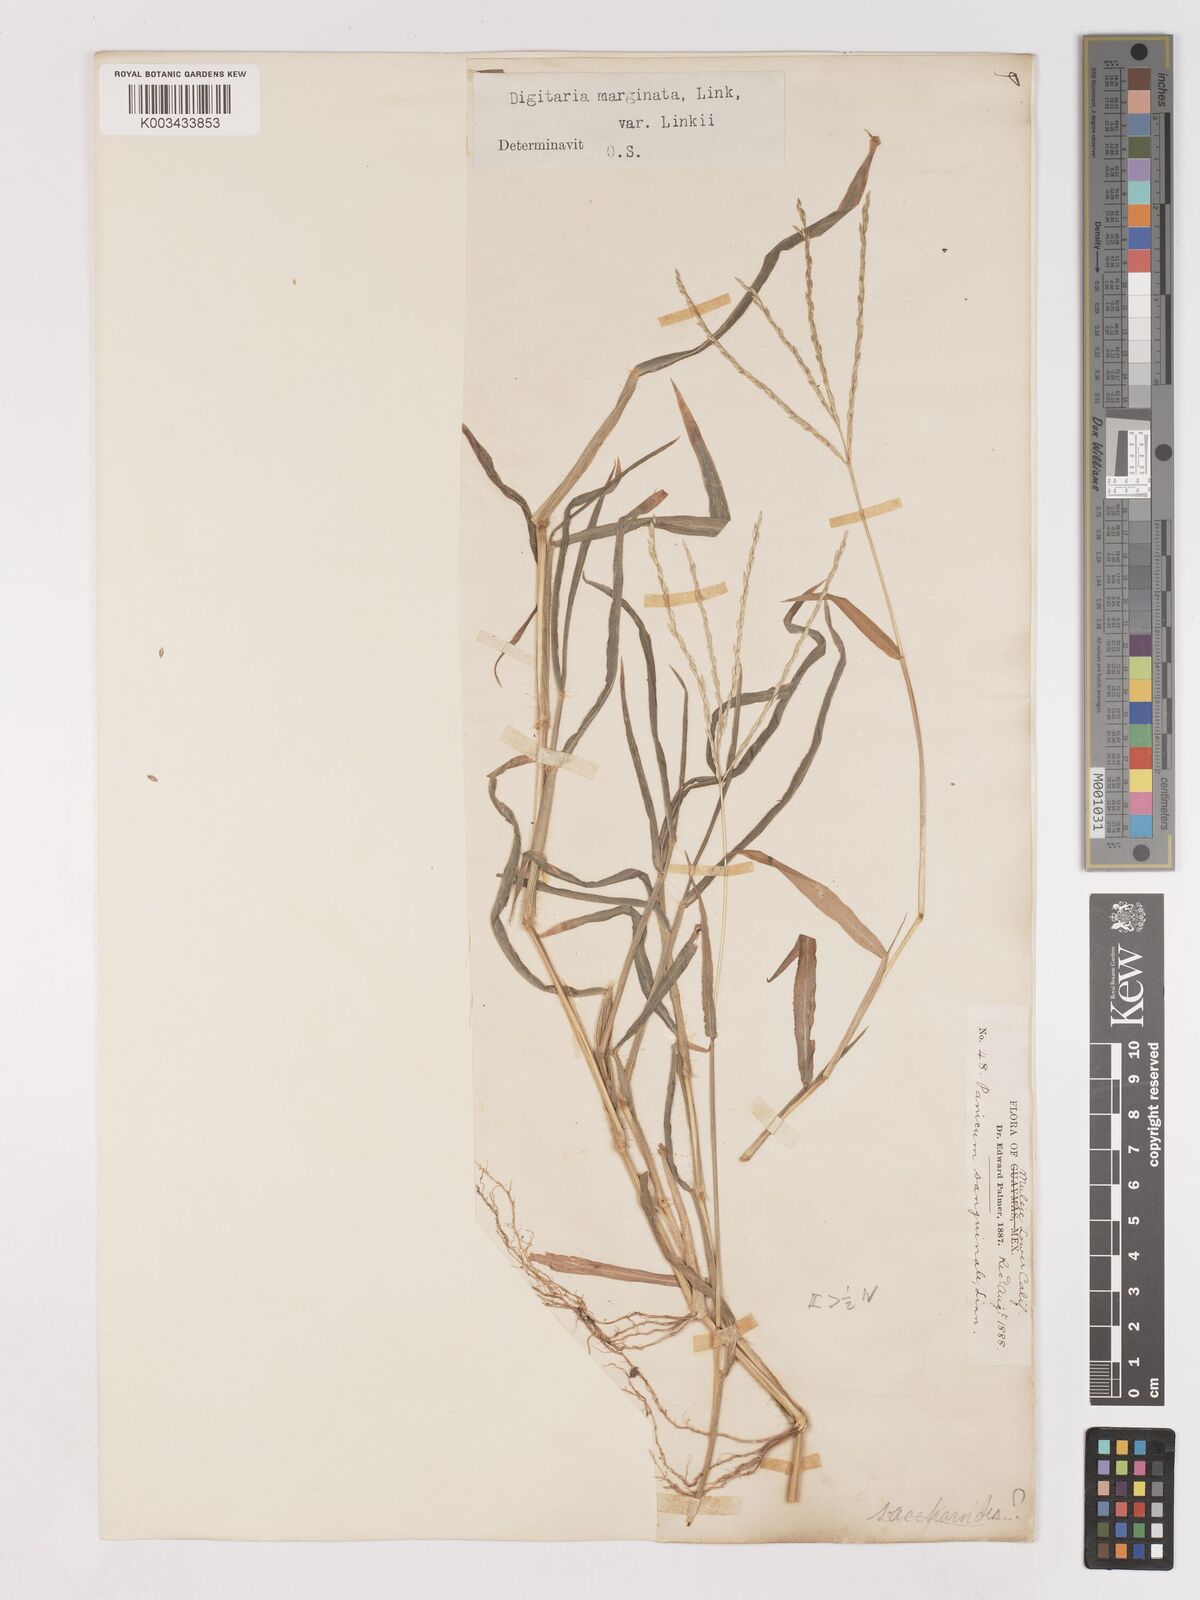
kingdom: Plantae
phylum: Tracheophyta
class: Liliopsida
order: Poales
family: Poaceae
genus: Digitaria
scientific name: Digitaria ciliaris
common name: Tropical finger-grass
